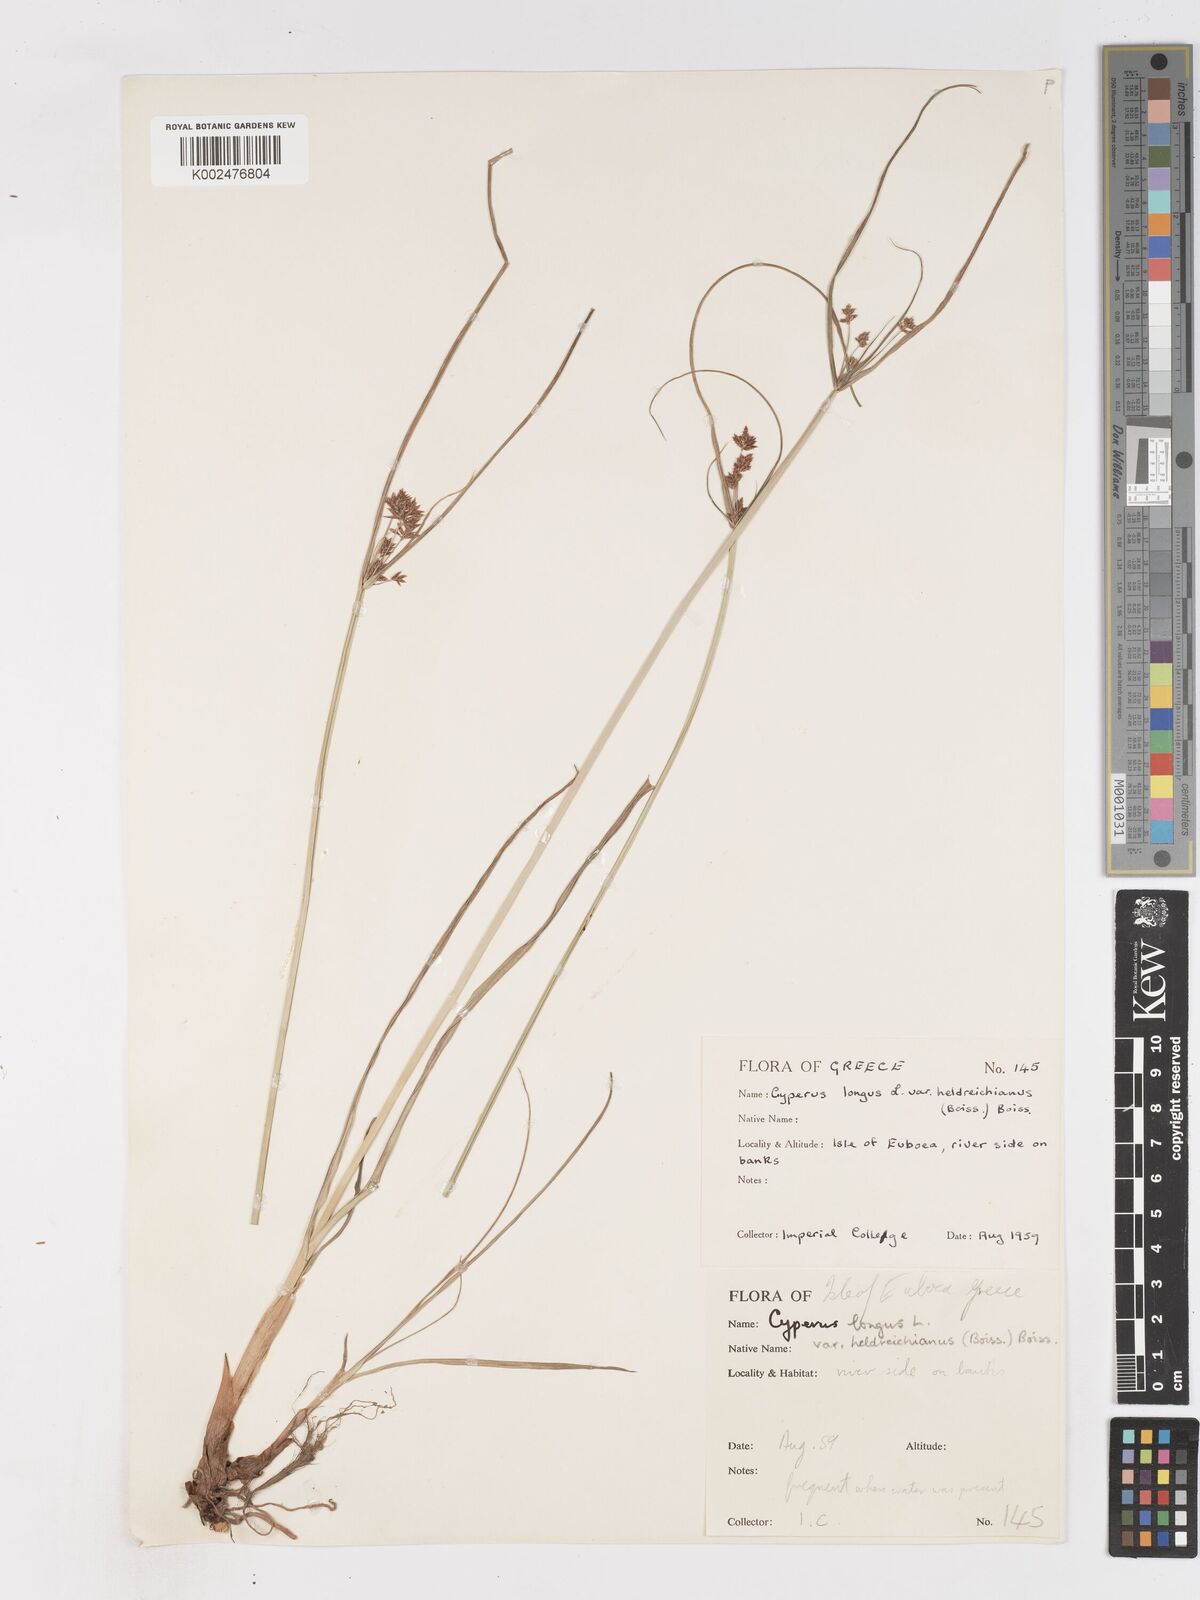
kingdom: Plantae
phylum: Tracheophyta
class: Liliopsida
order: Poales
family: Cyperaceae
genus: Cyperus
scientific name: Cyperus longus
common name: Galingale
